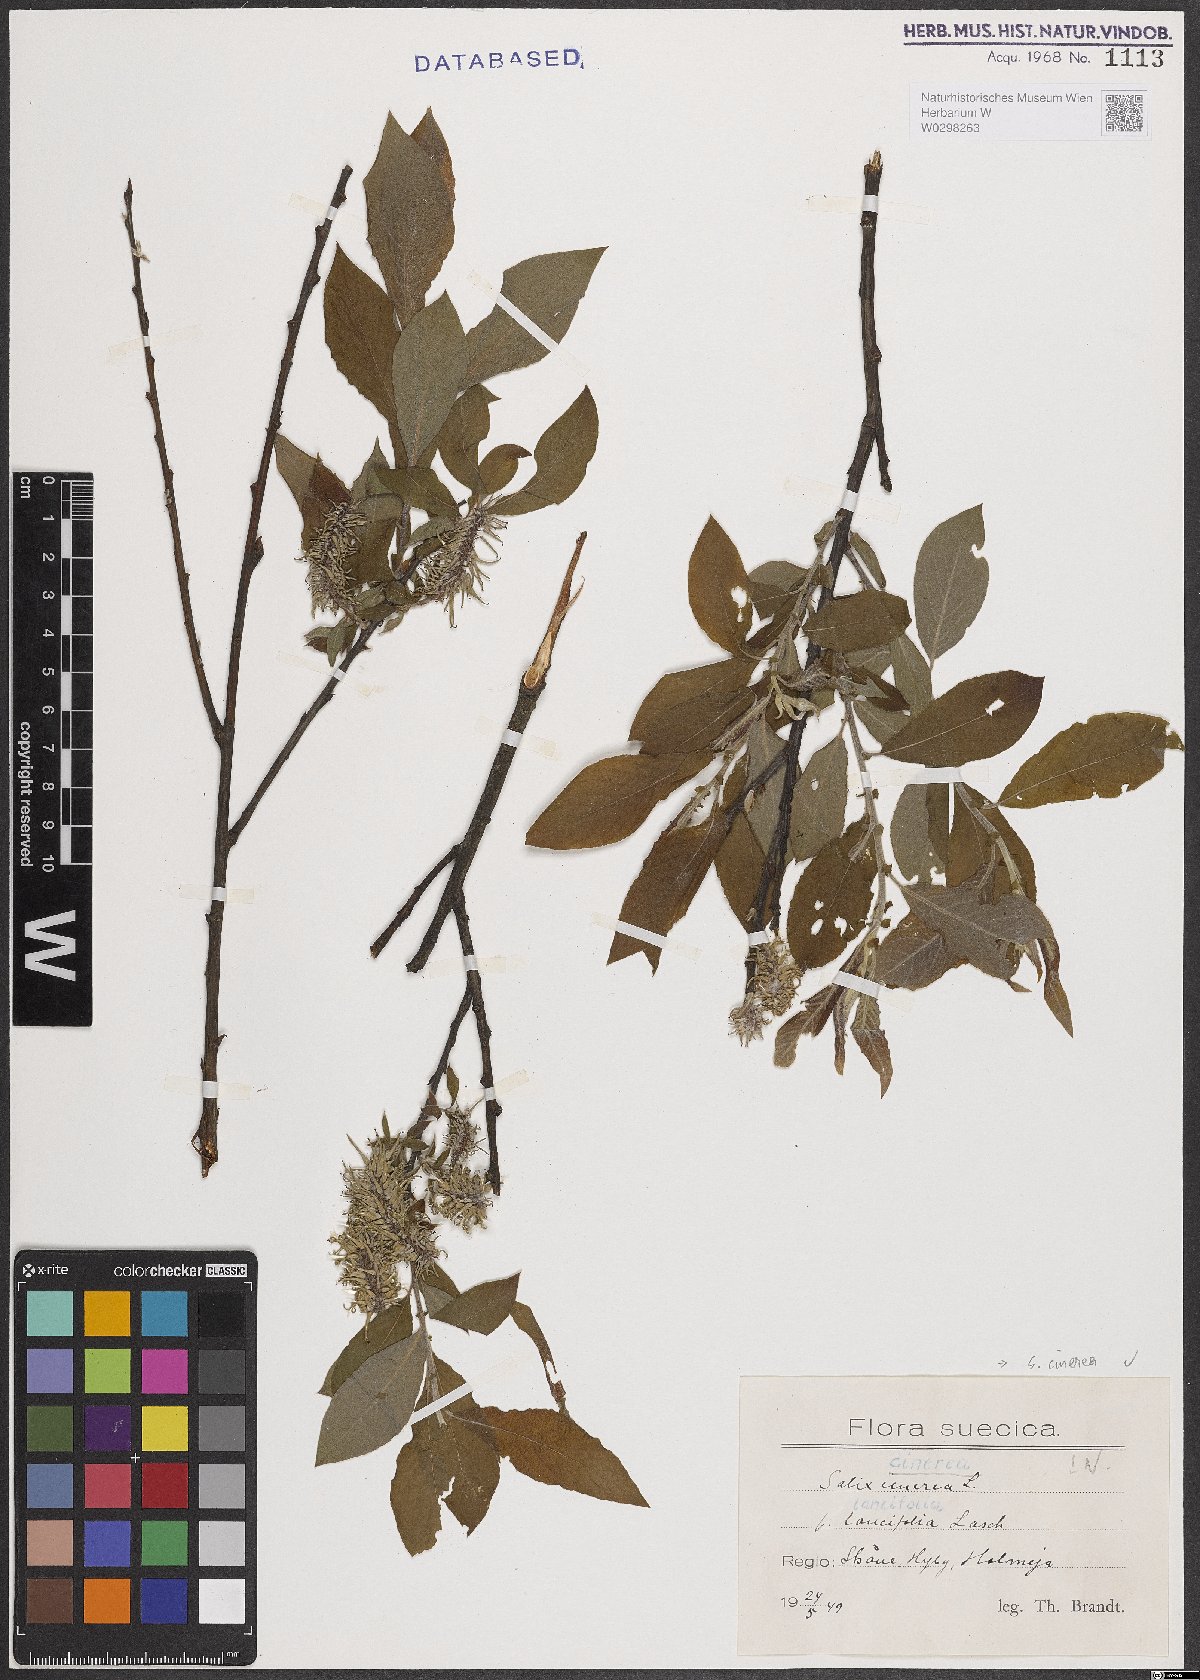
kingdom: Plantae
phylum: Tracheophyta
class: Magnoliopsida
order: Malpighiales
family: Salicaceae
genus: Salix
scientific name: Salix cinerea
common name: Common sallow
